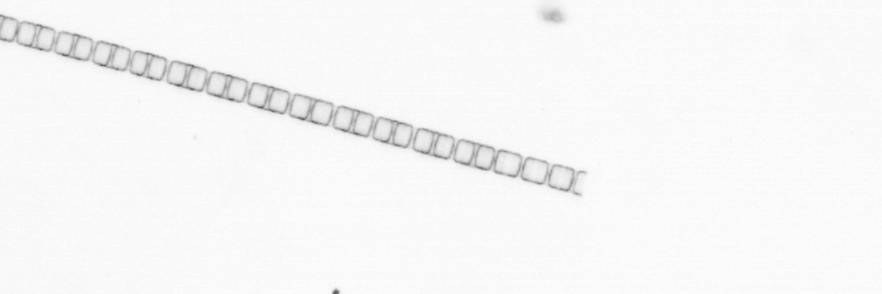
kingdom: Chromista
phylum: Ochrophyta
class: Bacillariophyceae
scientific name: Bacillariophyceae
